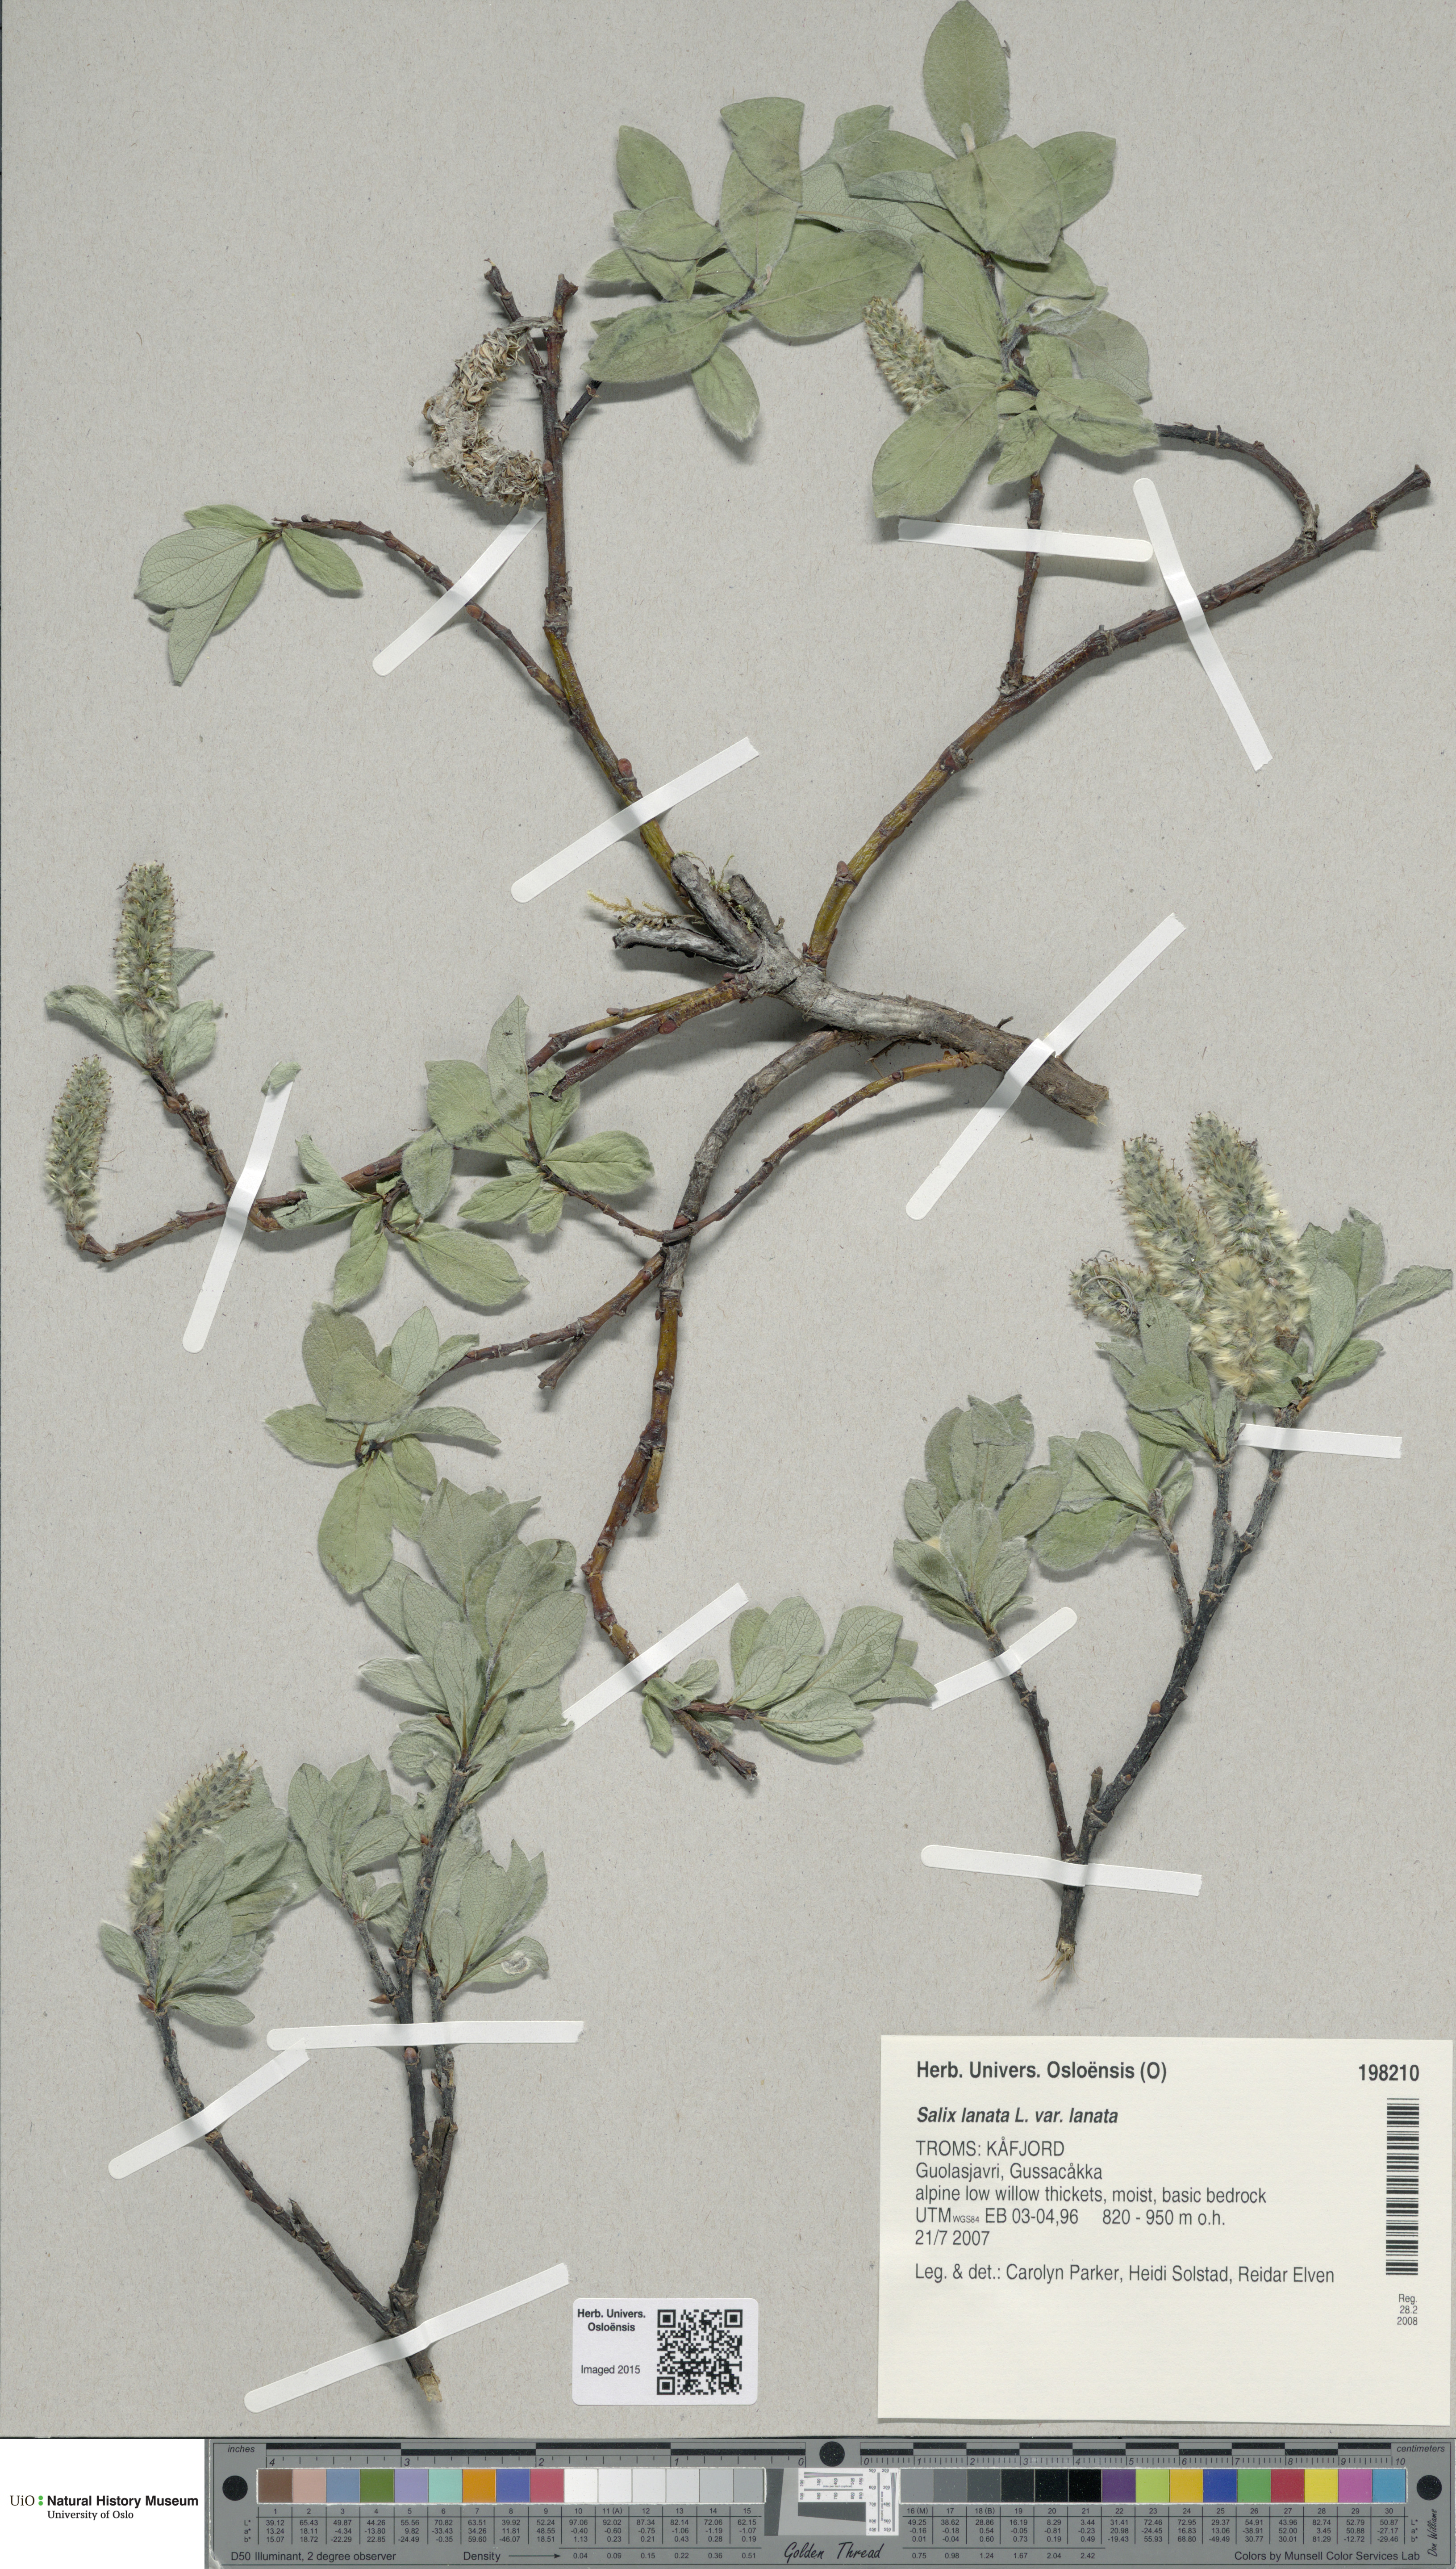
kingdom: Plantae
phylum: Tracheophyta
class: Magnoliopsida
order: Malpighiales
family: Salicaceae
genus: Salix
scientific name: Salix lanata
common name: Woolly willow
